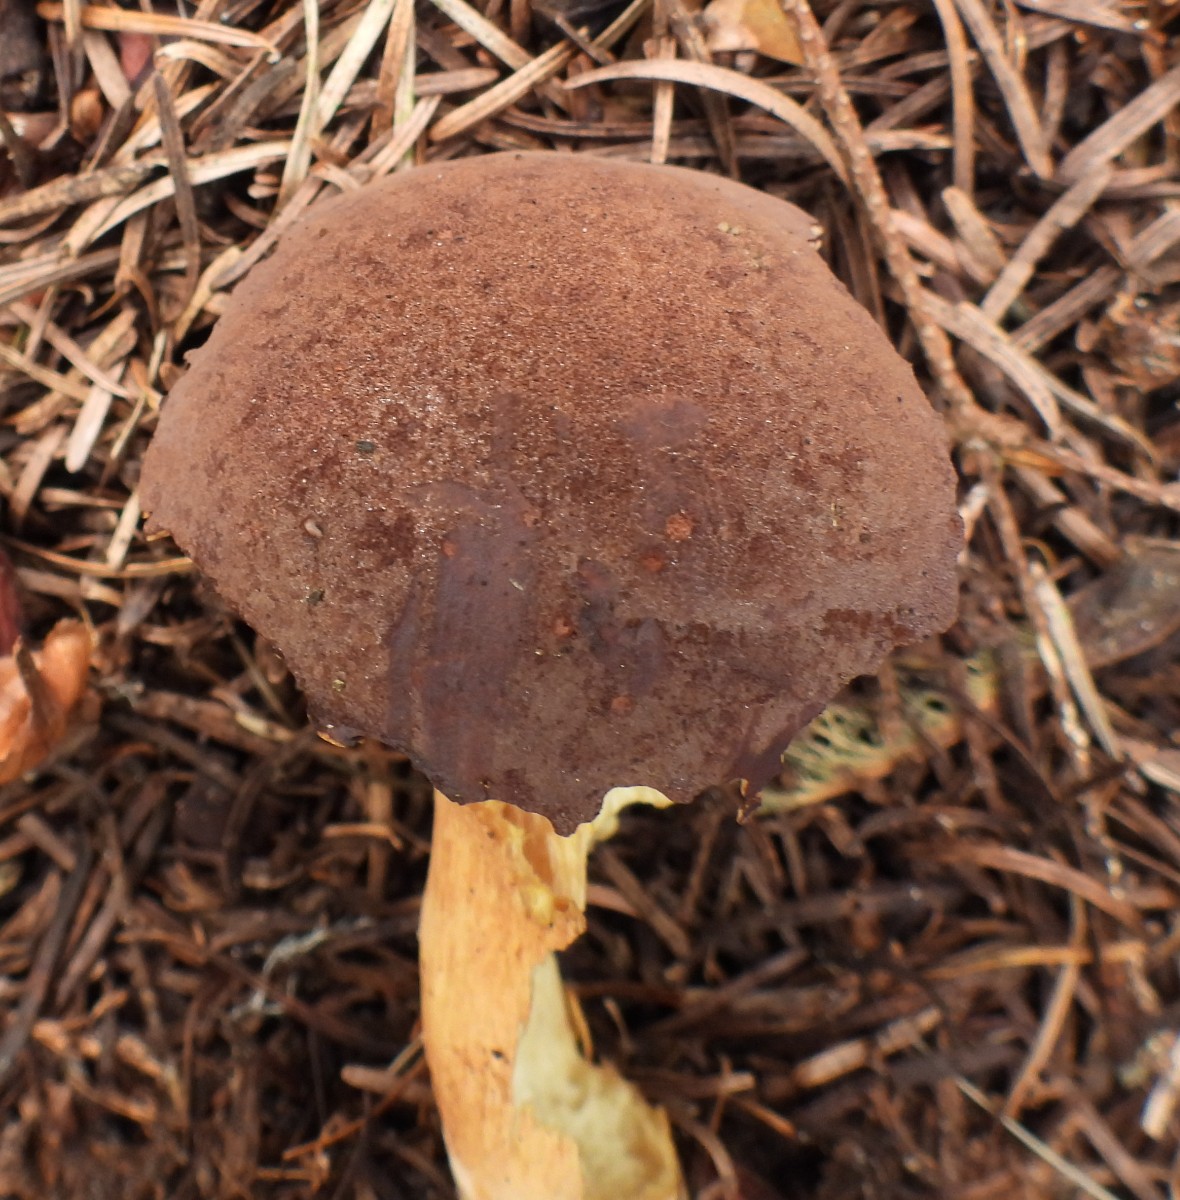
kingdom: Fungi
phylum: Basidiomycota
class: Agaricomycetes
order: Boletales
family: Boletaceae
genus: Imleria
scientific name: Imleria badia
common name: brunstokket rørhat
